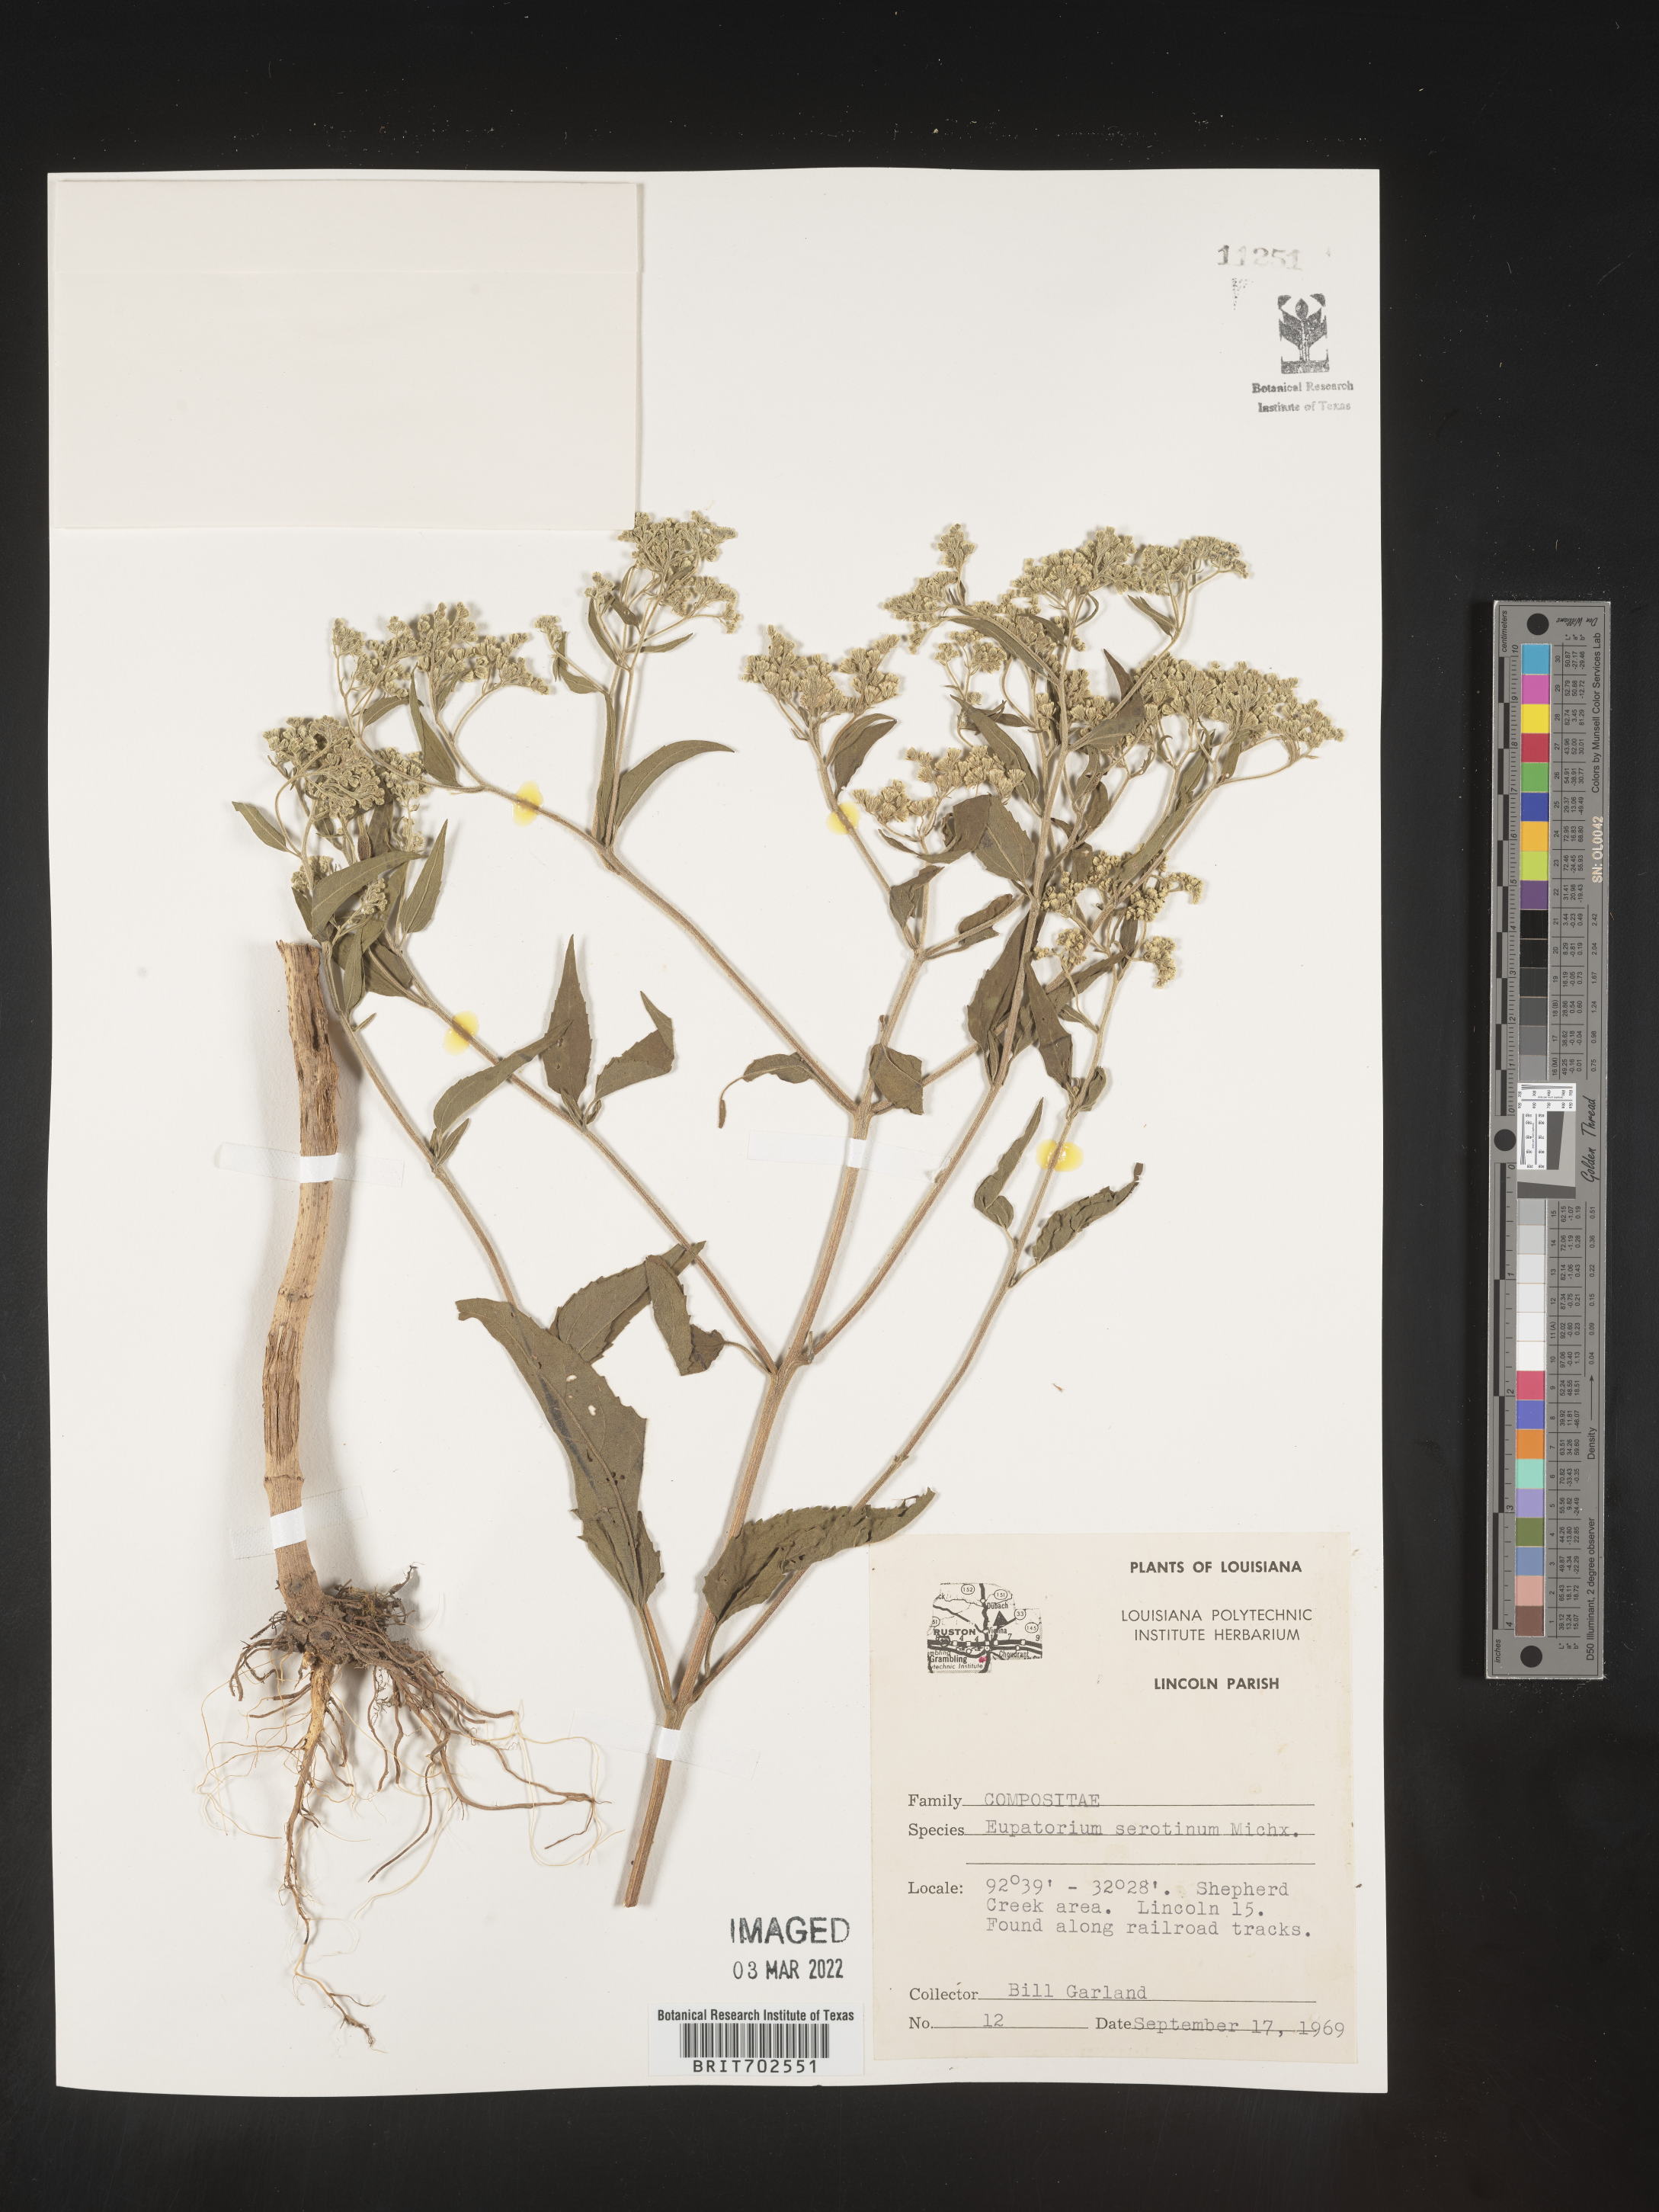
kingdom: Plantae
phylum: Tracheophyta
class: Magnoliopsida
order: Asterales
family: Asteraceae
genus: Eupatorium
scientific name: Eupatorium serotinum
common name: Late boneset
